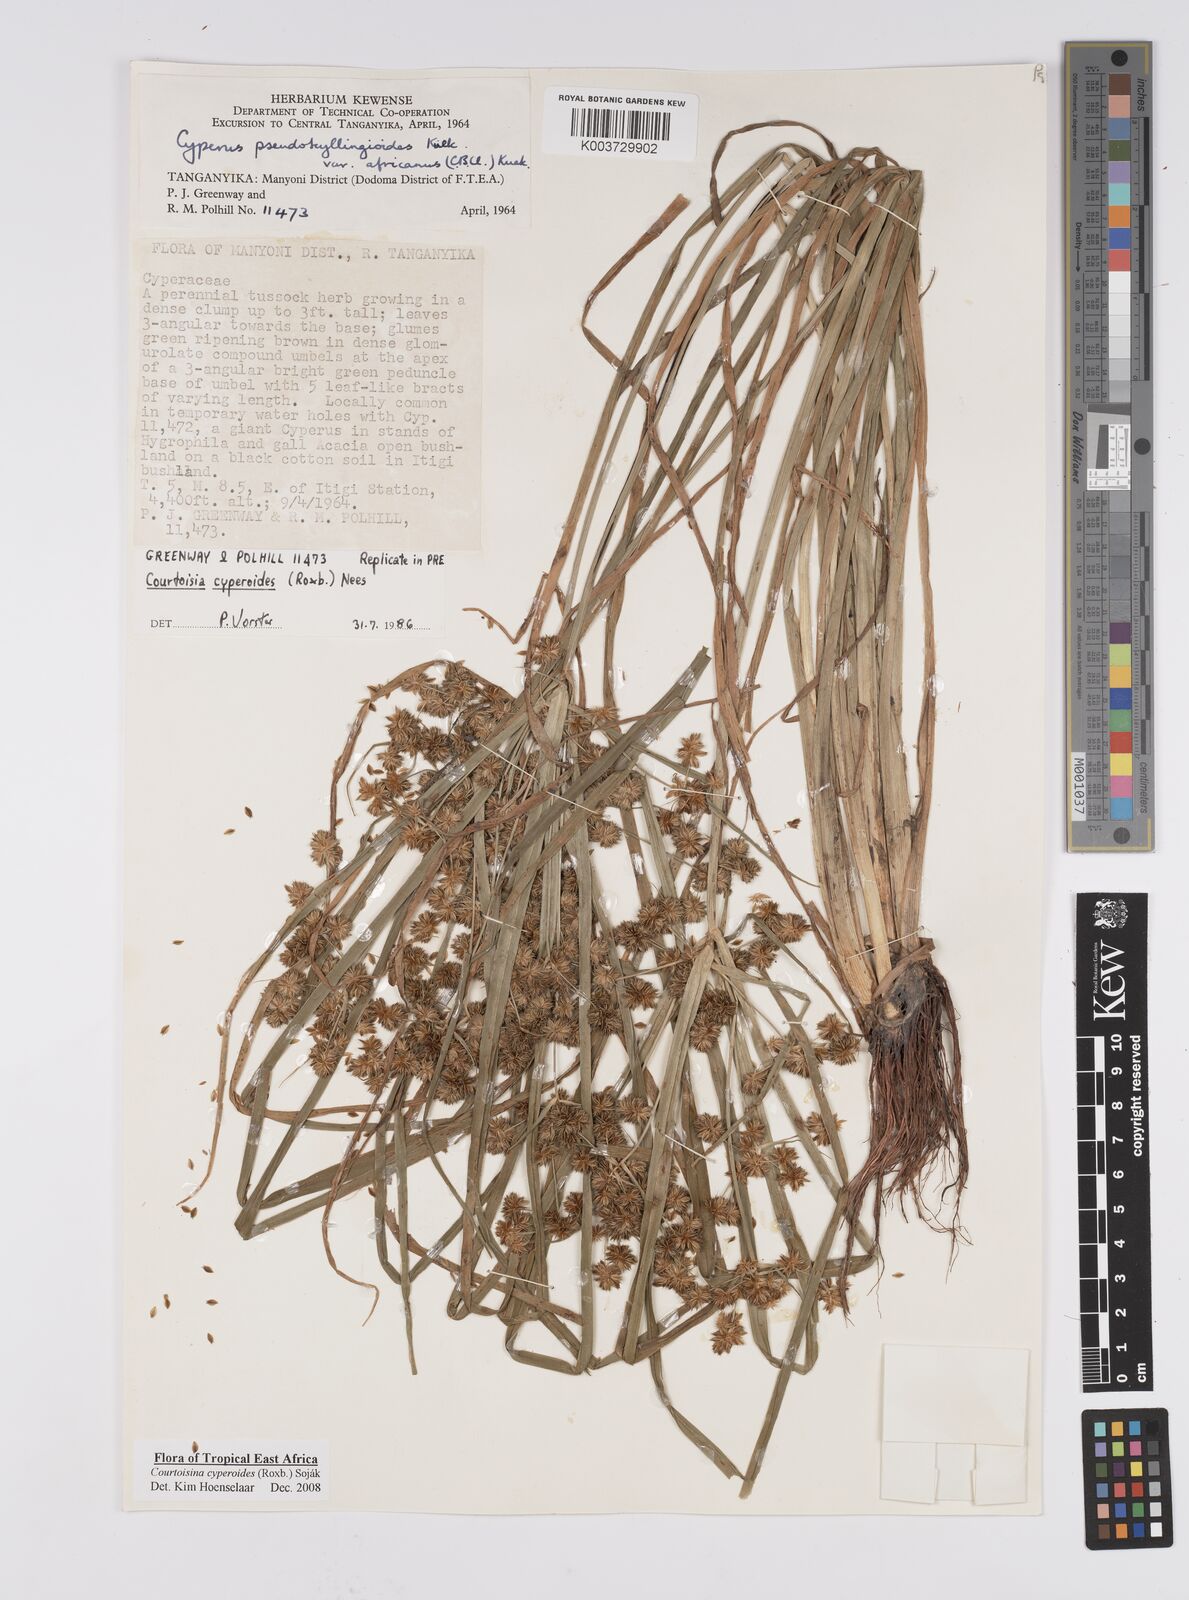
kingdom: Plantae
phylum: Tracheophyta
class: Liliopsida
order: Poales
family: Cyperaceae
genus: Cyperus
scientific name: Cyperus cyperoides
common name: Pacific island flat sedge
